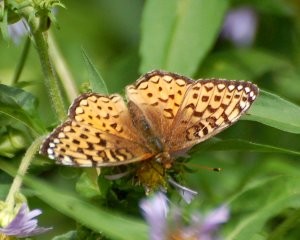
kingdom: Animalia
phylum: Arthropoda
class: Insecta
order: Lepidoptera
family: Nymphalidae
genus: Speyeria
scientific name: Speyeria atlantis
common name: Atlantis Fritillary
